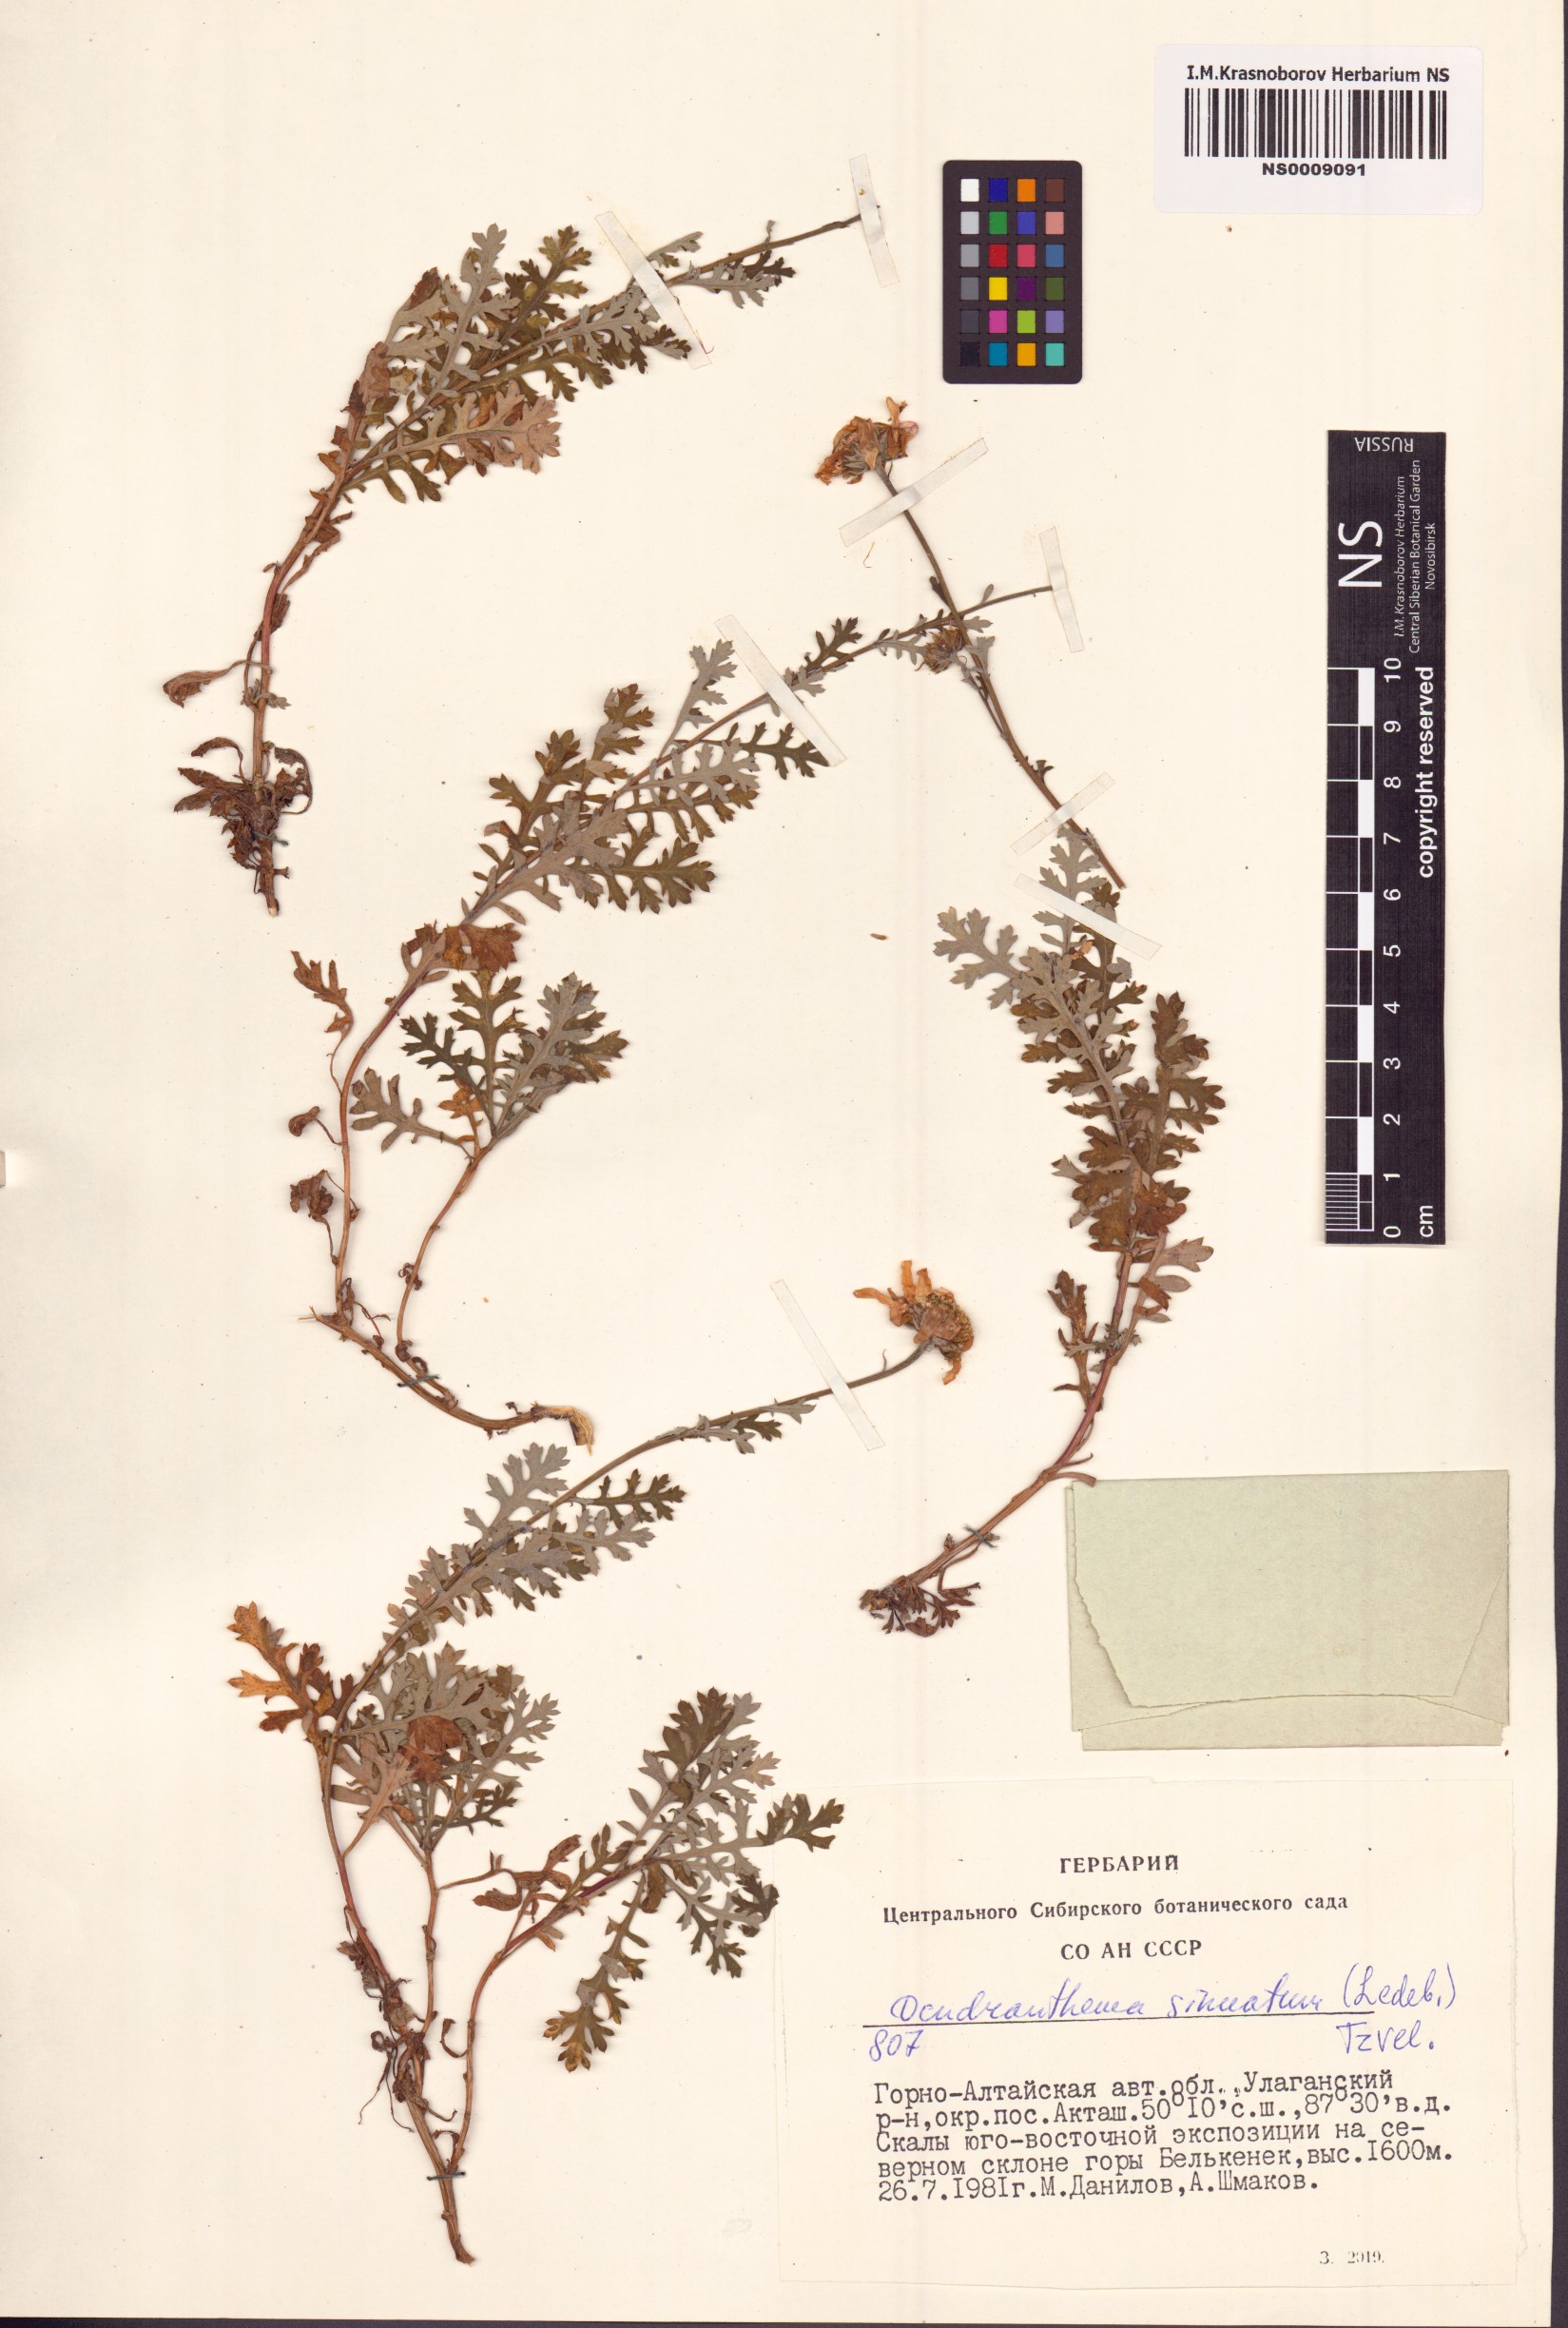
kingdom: Plantae
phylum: Tracheophyta
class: Magnoliopsida
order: Asterales
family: Asteraceae
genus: Chrysanthemum
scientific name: Chrysanthemum sinuatum
